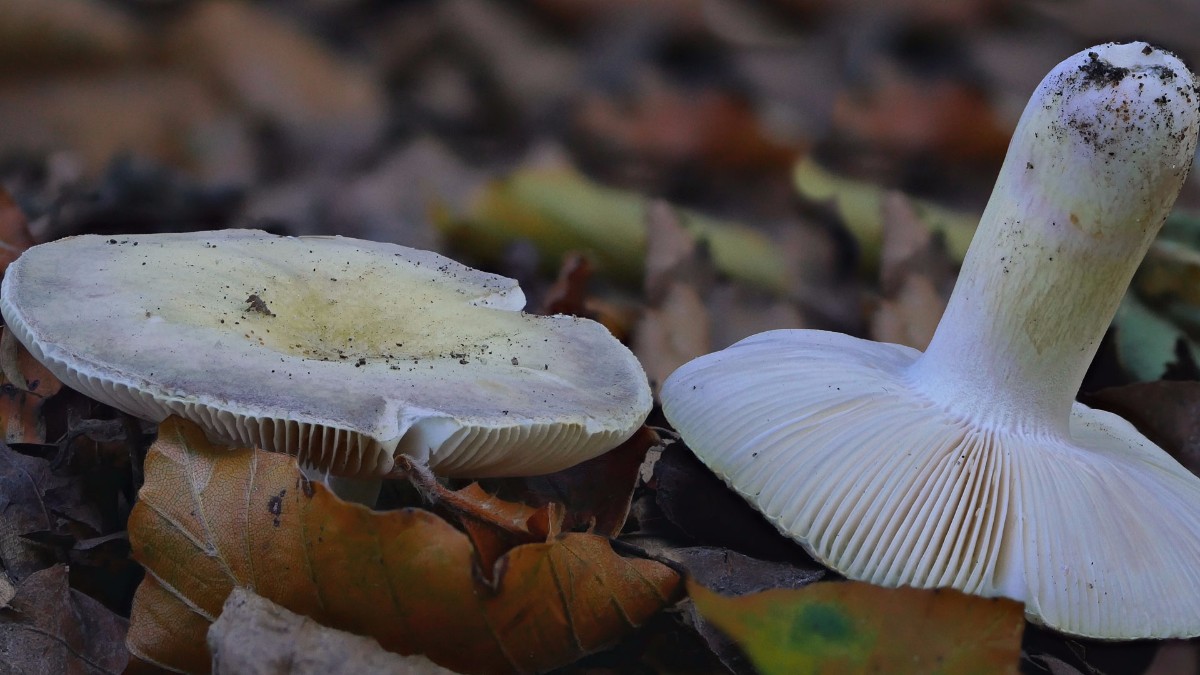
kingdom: Fungi
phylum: Basidiomycota
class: Agaricomycetes
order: Russulales
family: Russulaceae
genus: Russula
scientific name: Russula violeipes
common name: ferskengul skørhat
